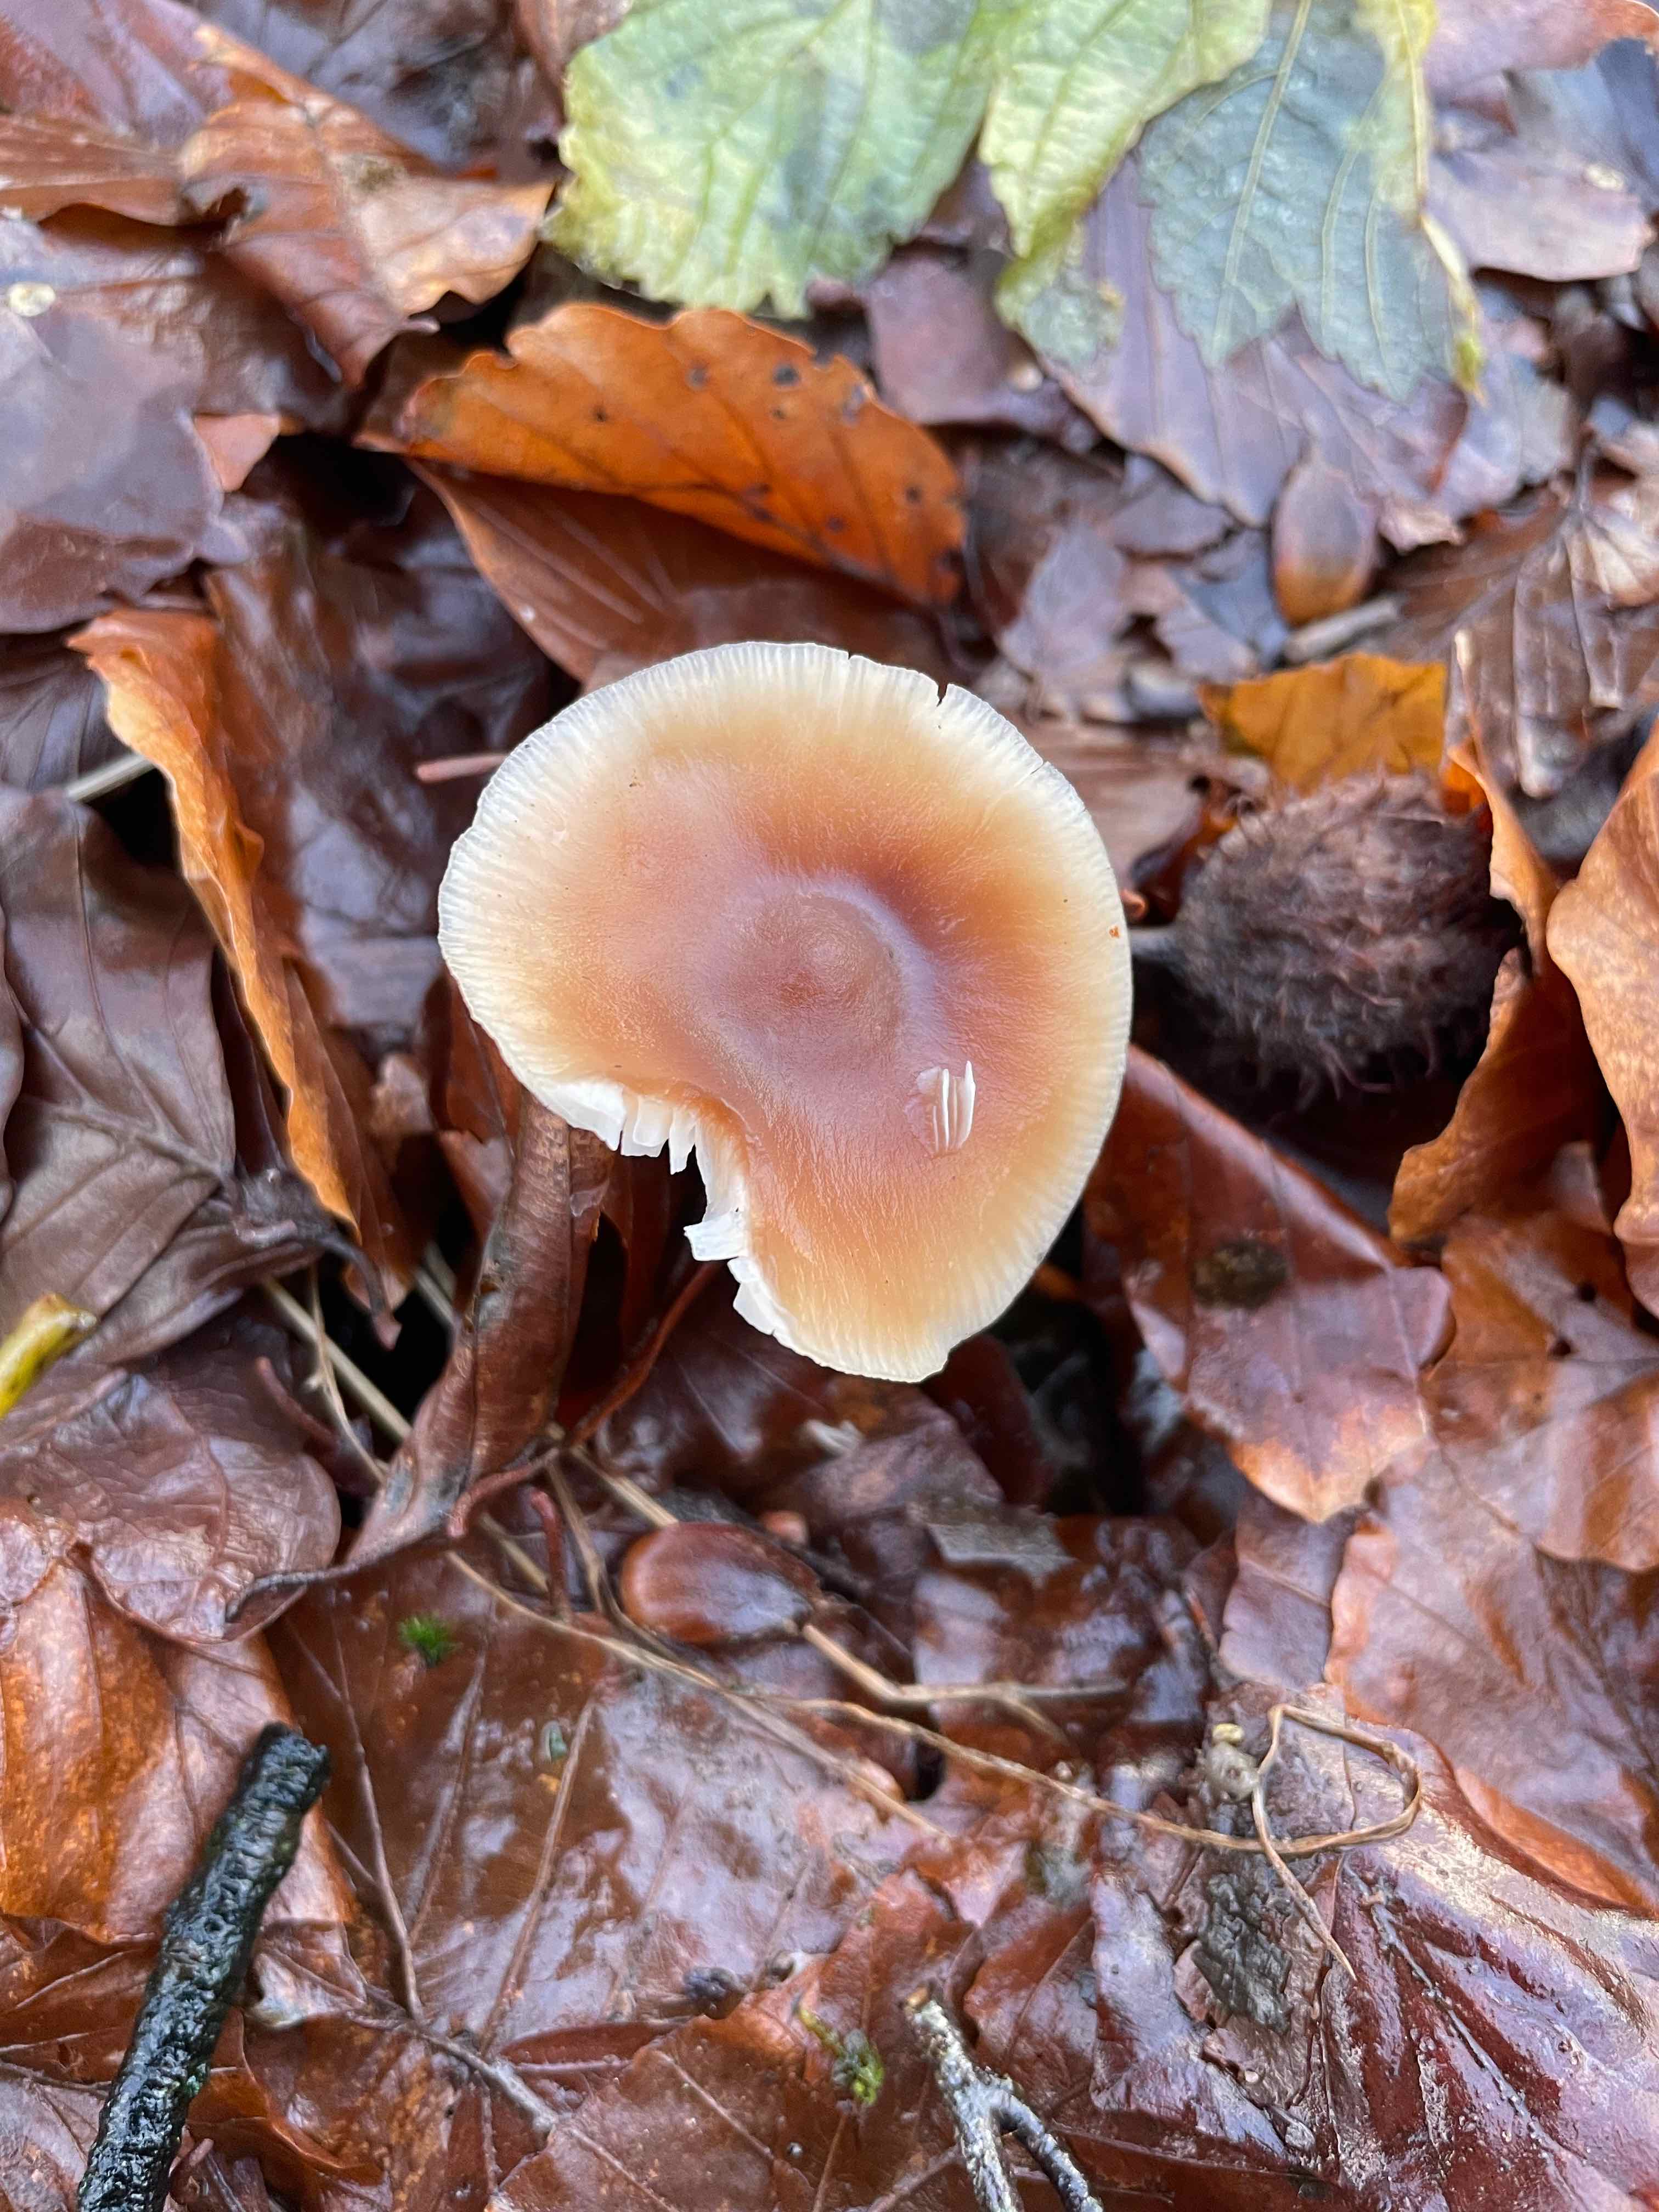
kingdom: Fungi
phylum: Basidiomycota
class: Agaricomycetes
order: Agaricales
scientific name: Agaricales
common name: champignonordenen
